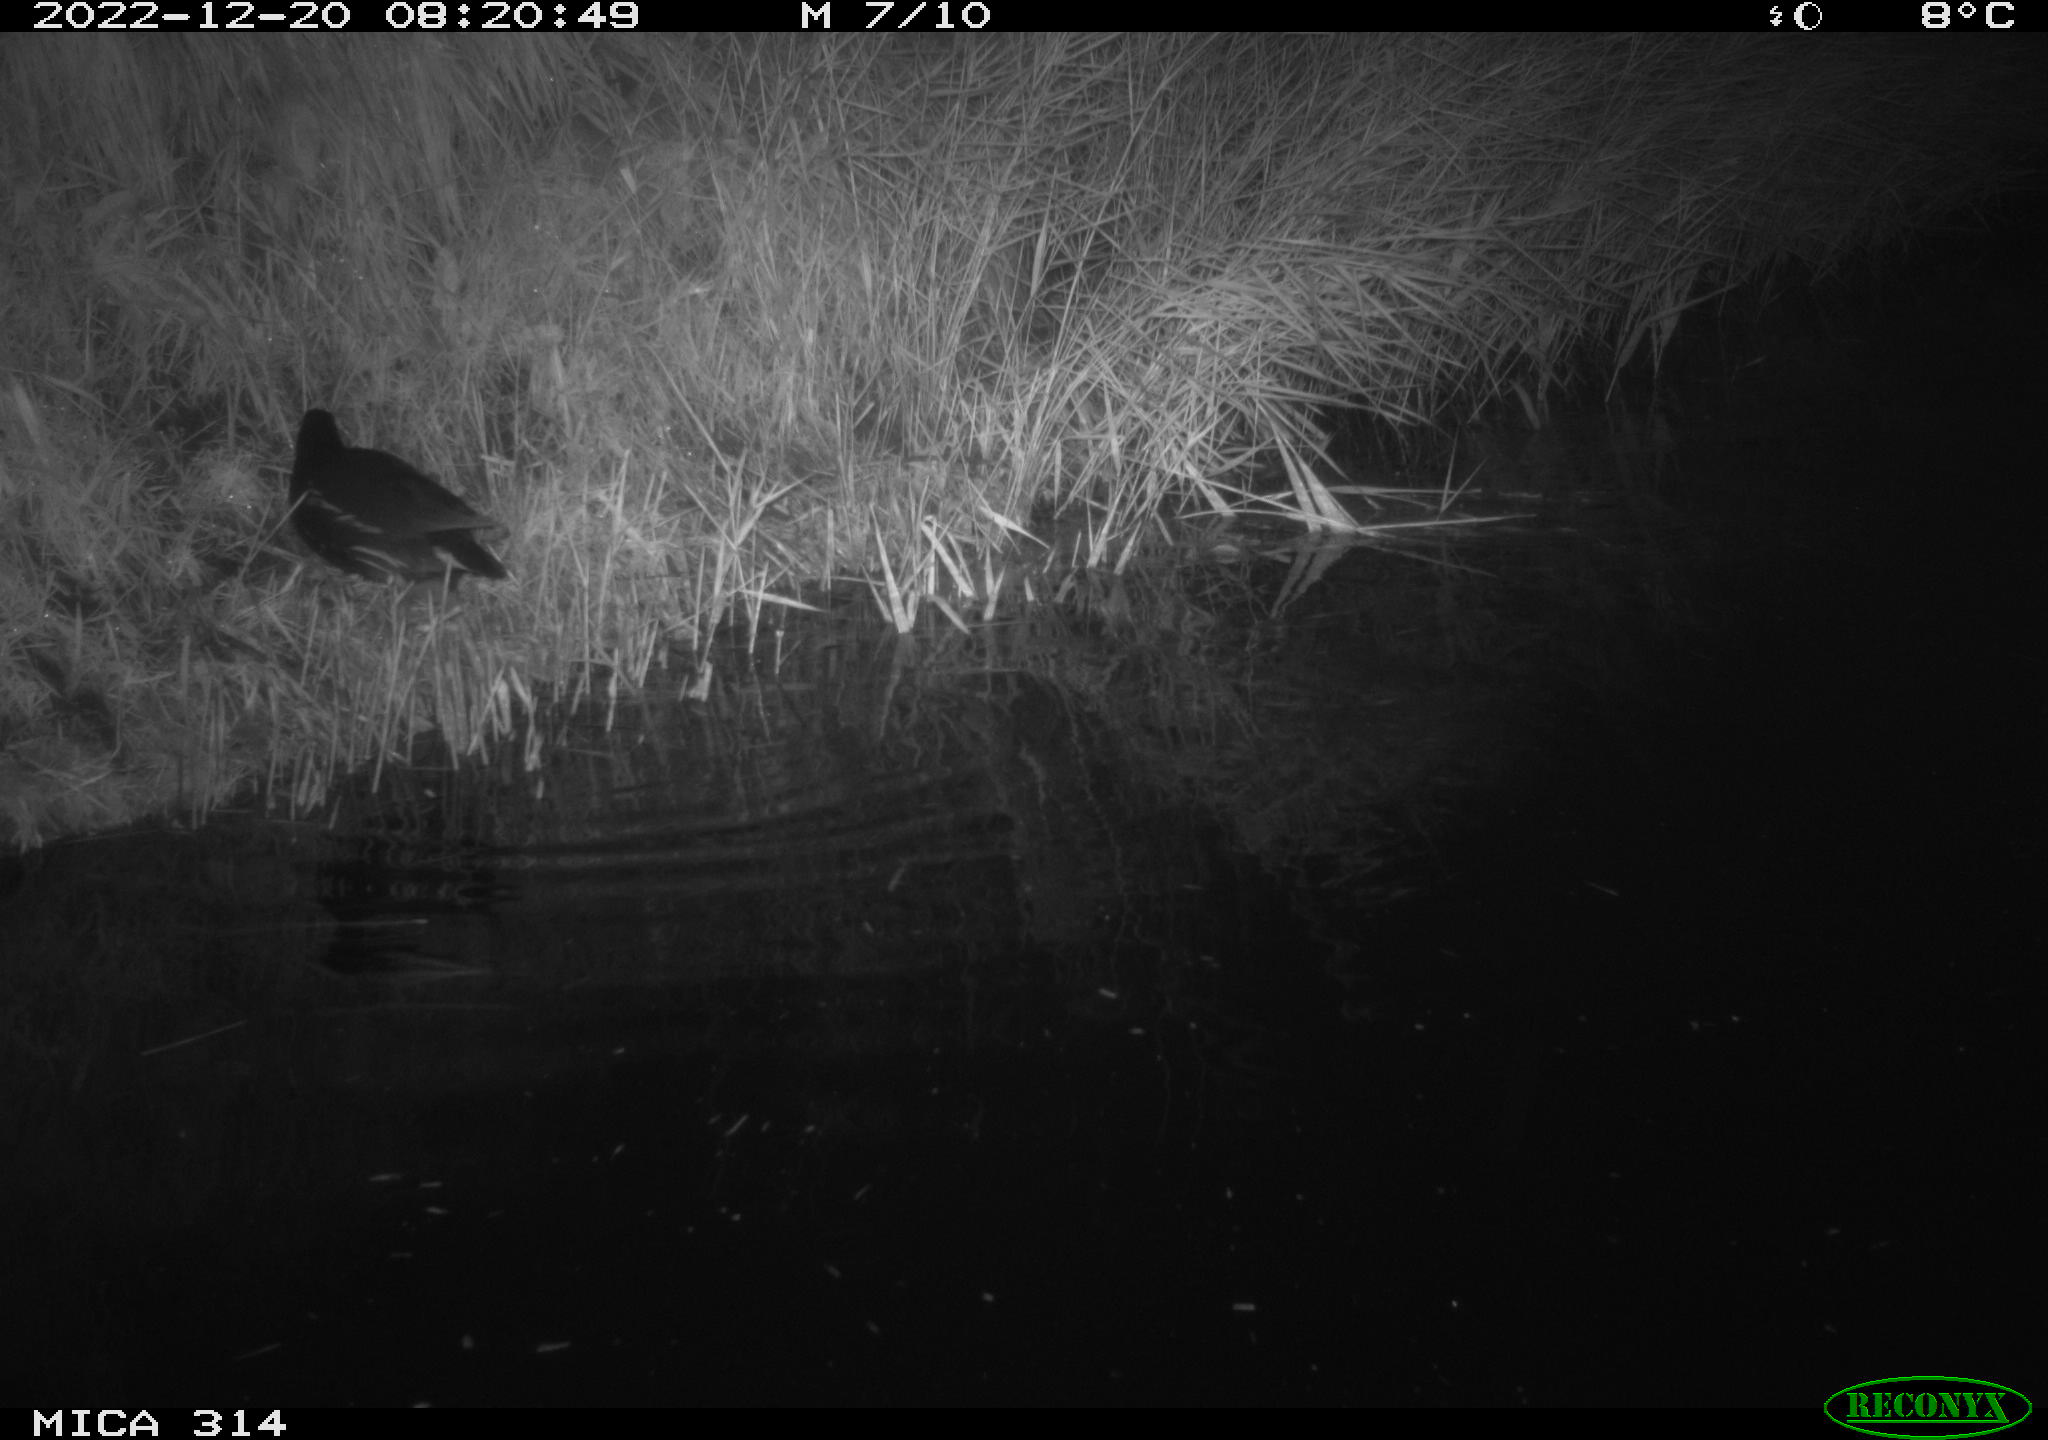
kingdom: Animalia
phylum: Chordata
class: Aves
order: Gruiformes
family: Rallidae
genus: Gallinula
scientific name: Gallinula chloropus
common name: Common moorhen
